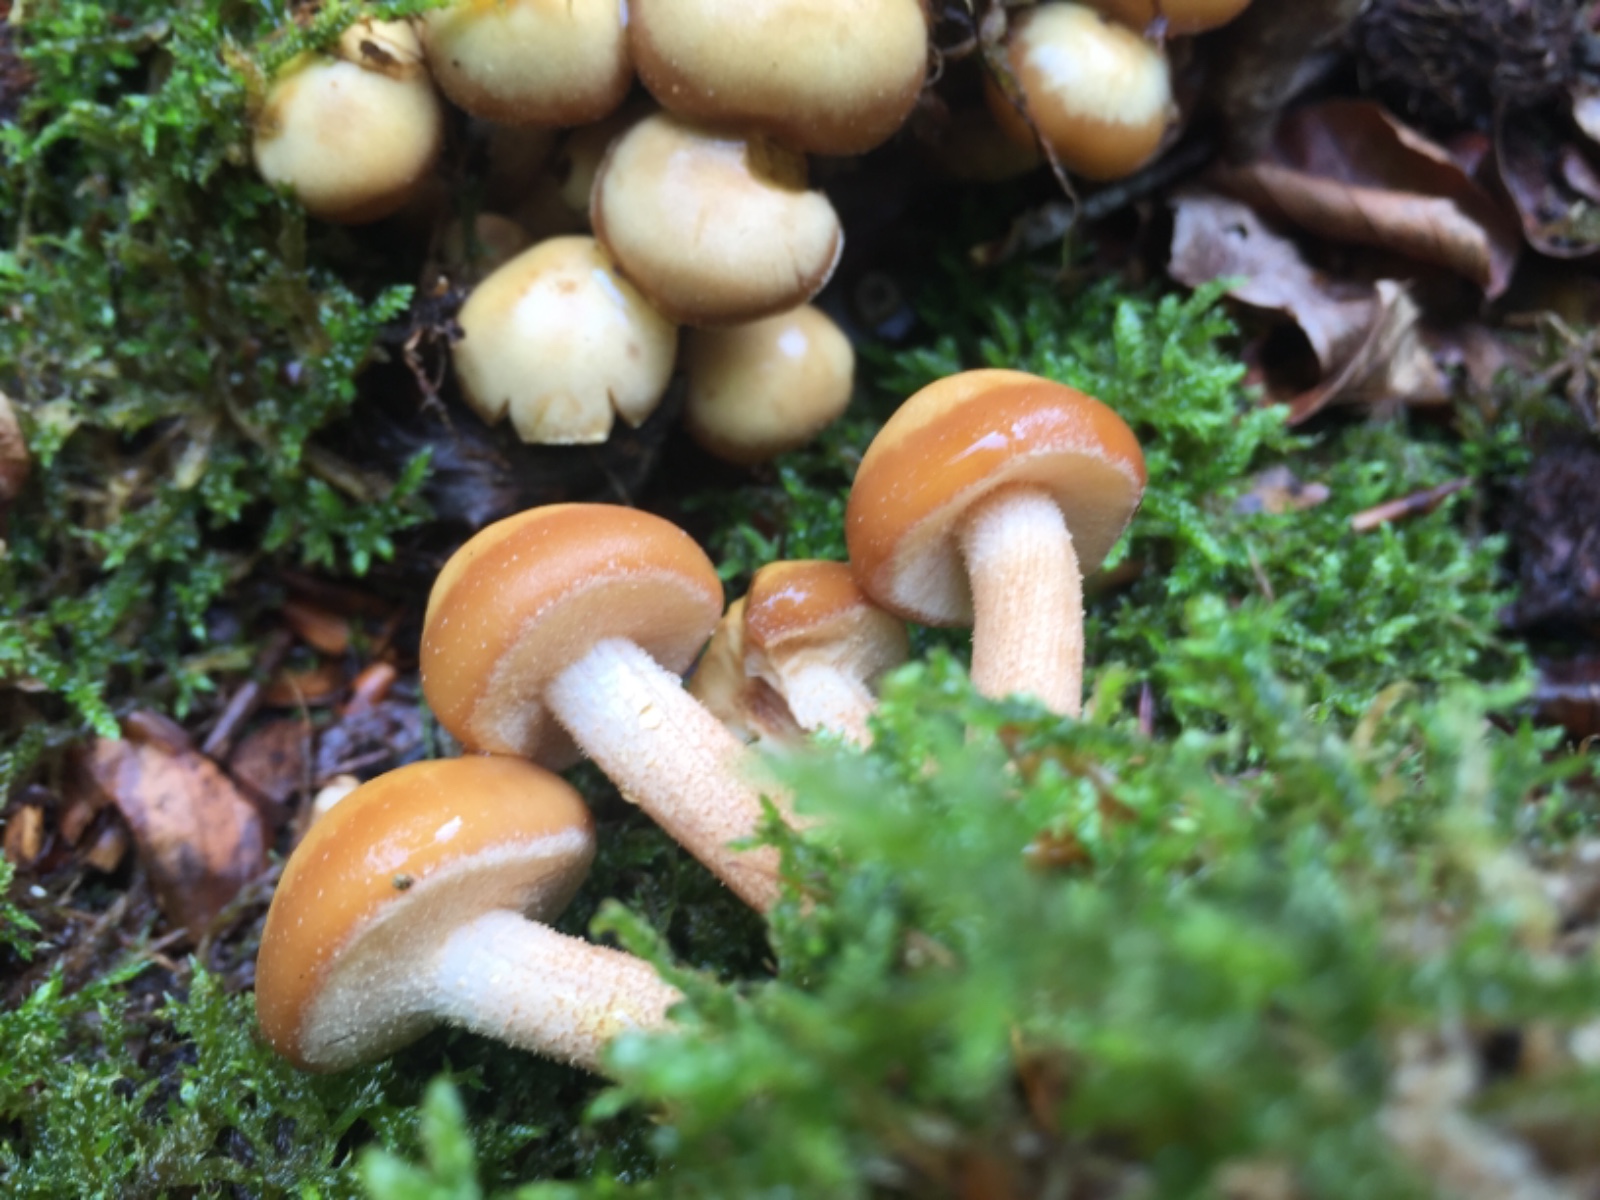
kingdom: Fungi
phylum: Basidiomycota
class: Agaricomycetes
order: Agaricales
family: Strophariaceae
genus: Kuehneromyces
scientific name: Kuehneromyces mutabilis
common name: foranderlig skælhat
